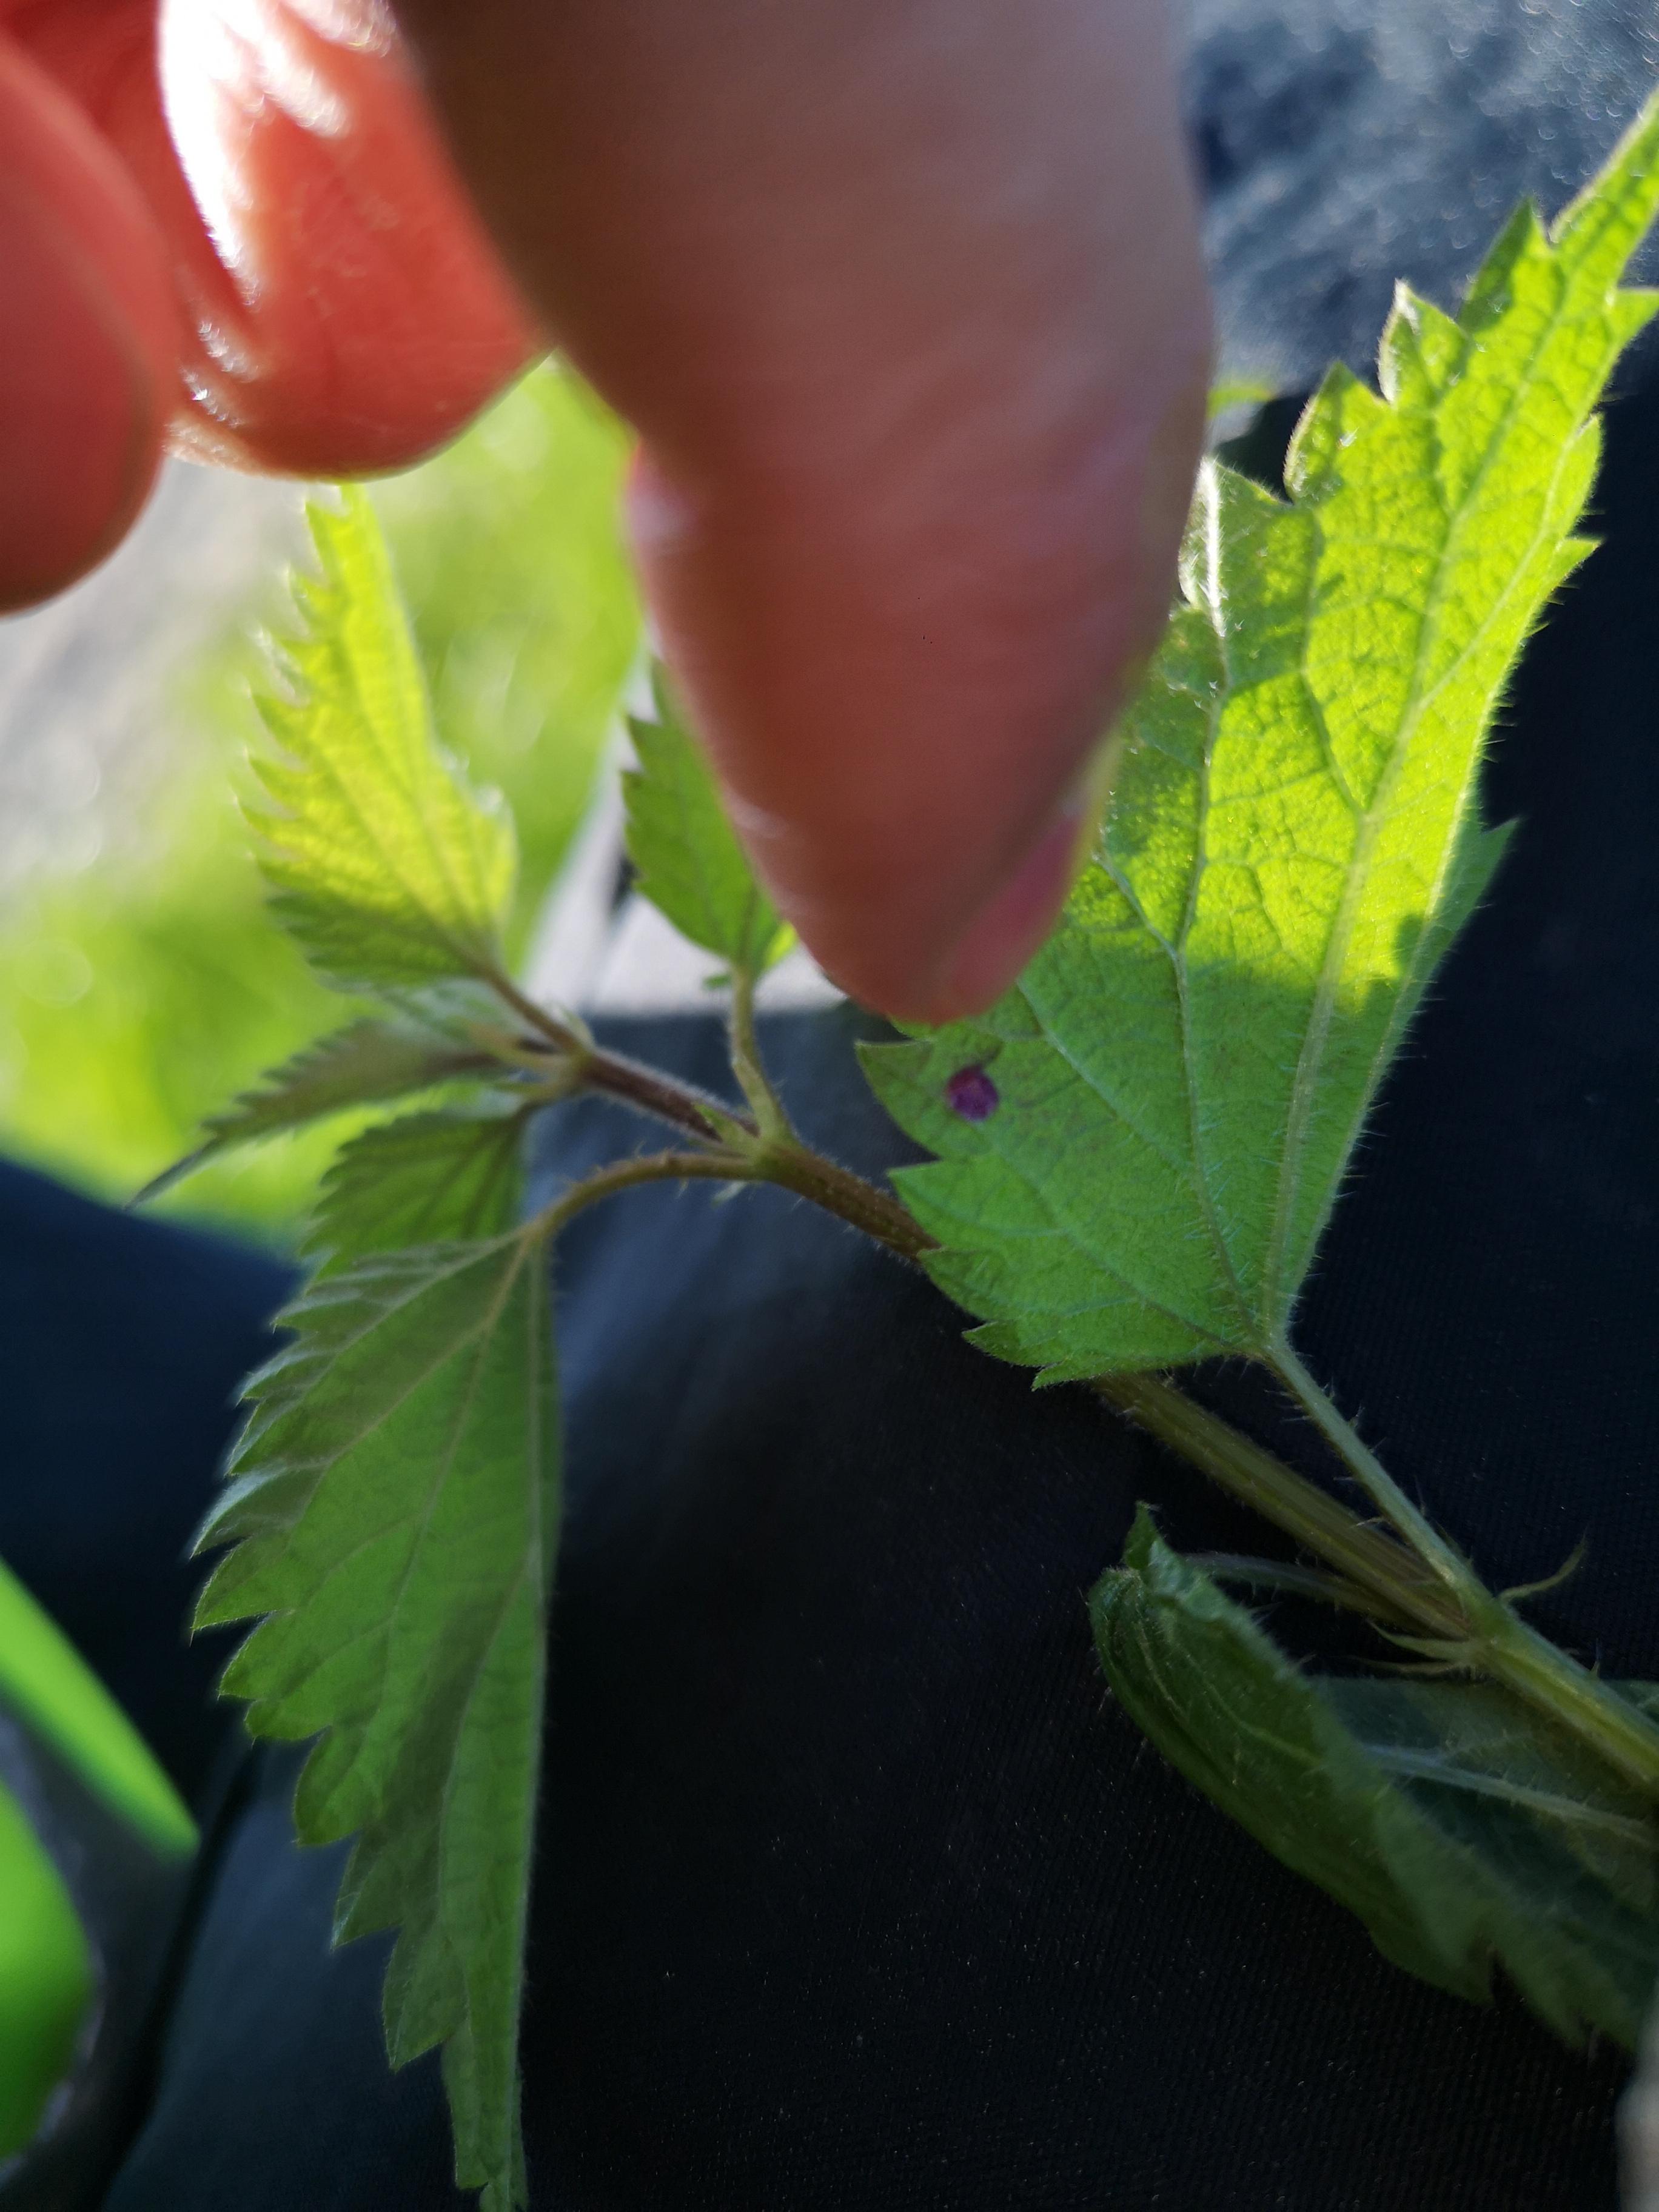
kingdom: Fungi
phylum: Basidiomycota
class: Pucciniomycetes
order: Pucciniales
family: Pucciniaceae
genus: Puccinia
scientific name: Puccinia
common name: tvecellerust
